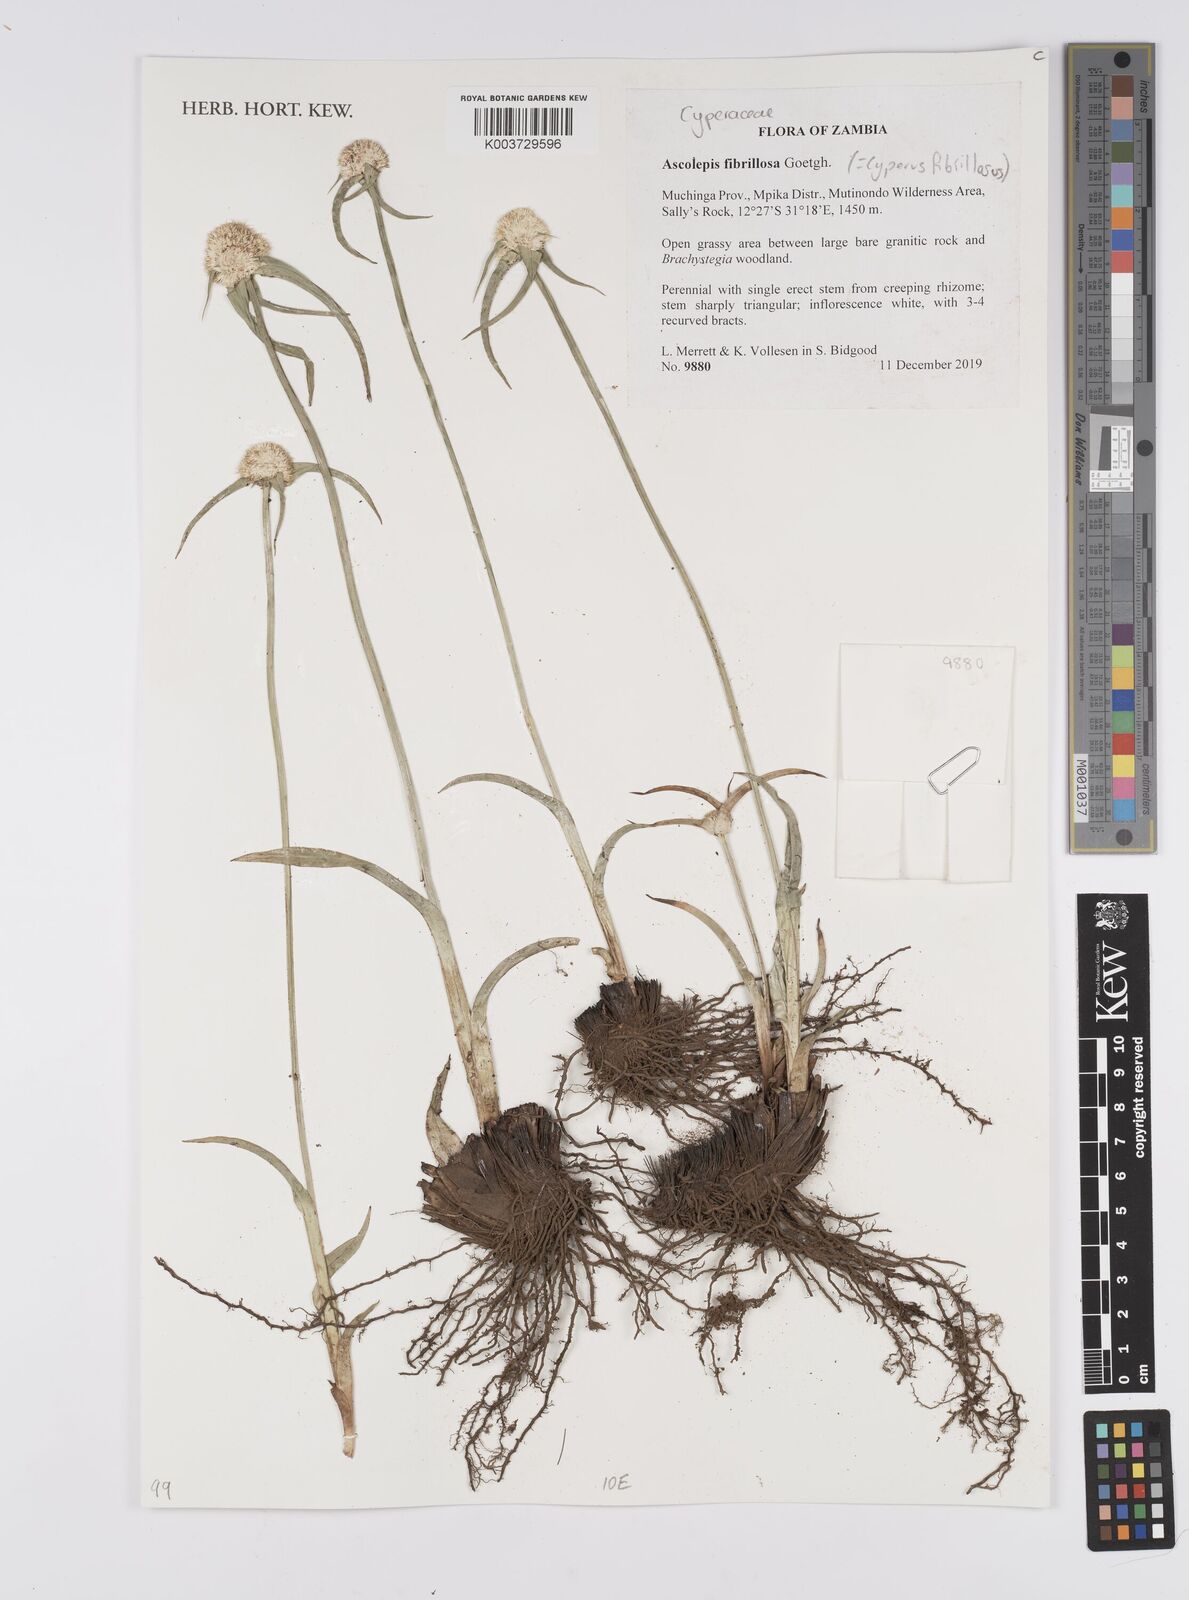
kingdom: Plantae
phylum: Tracheophyta
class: Liliopsida
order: Poales
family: Cyperaceae
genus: Cyperus
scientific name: Cyperus
